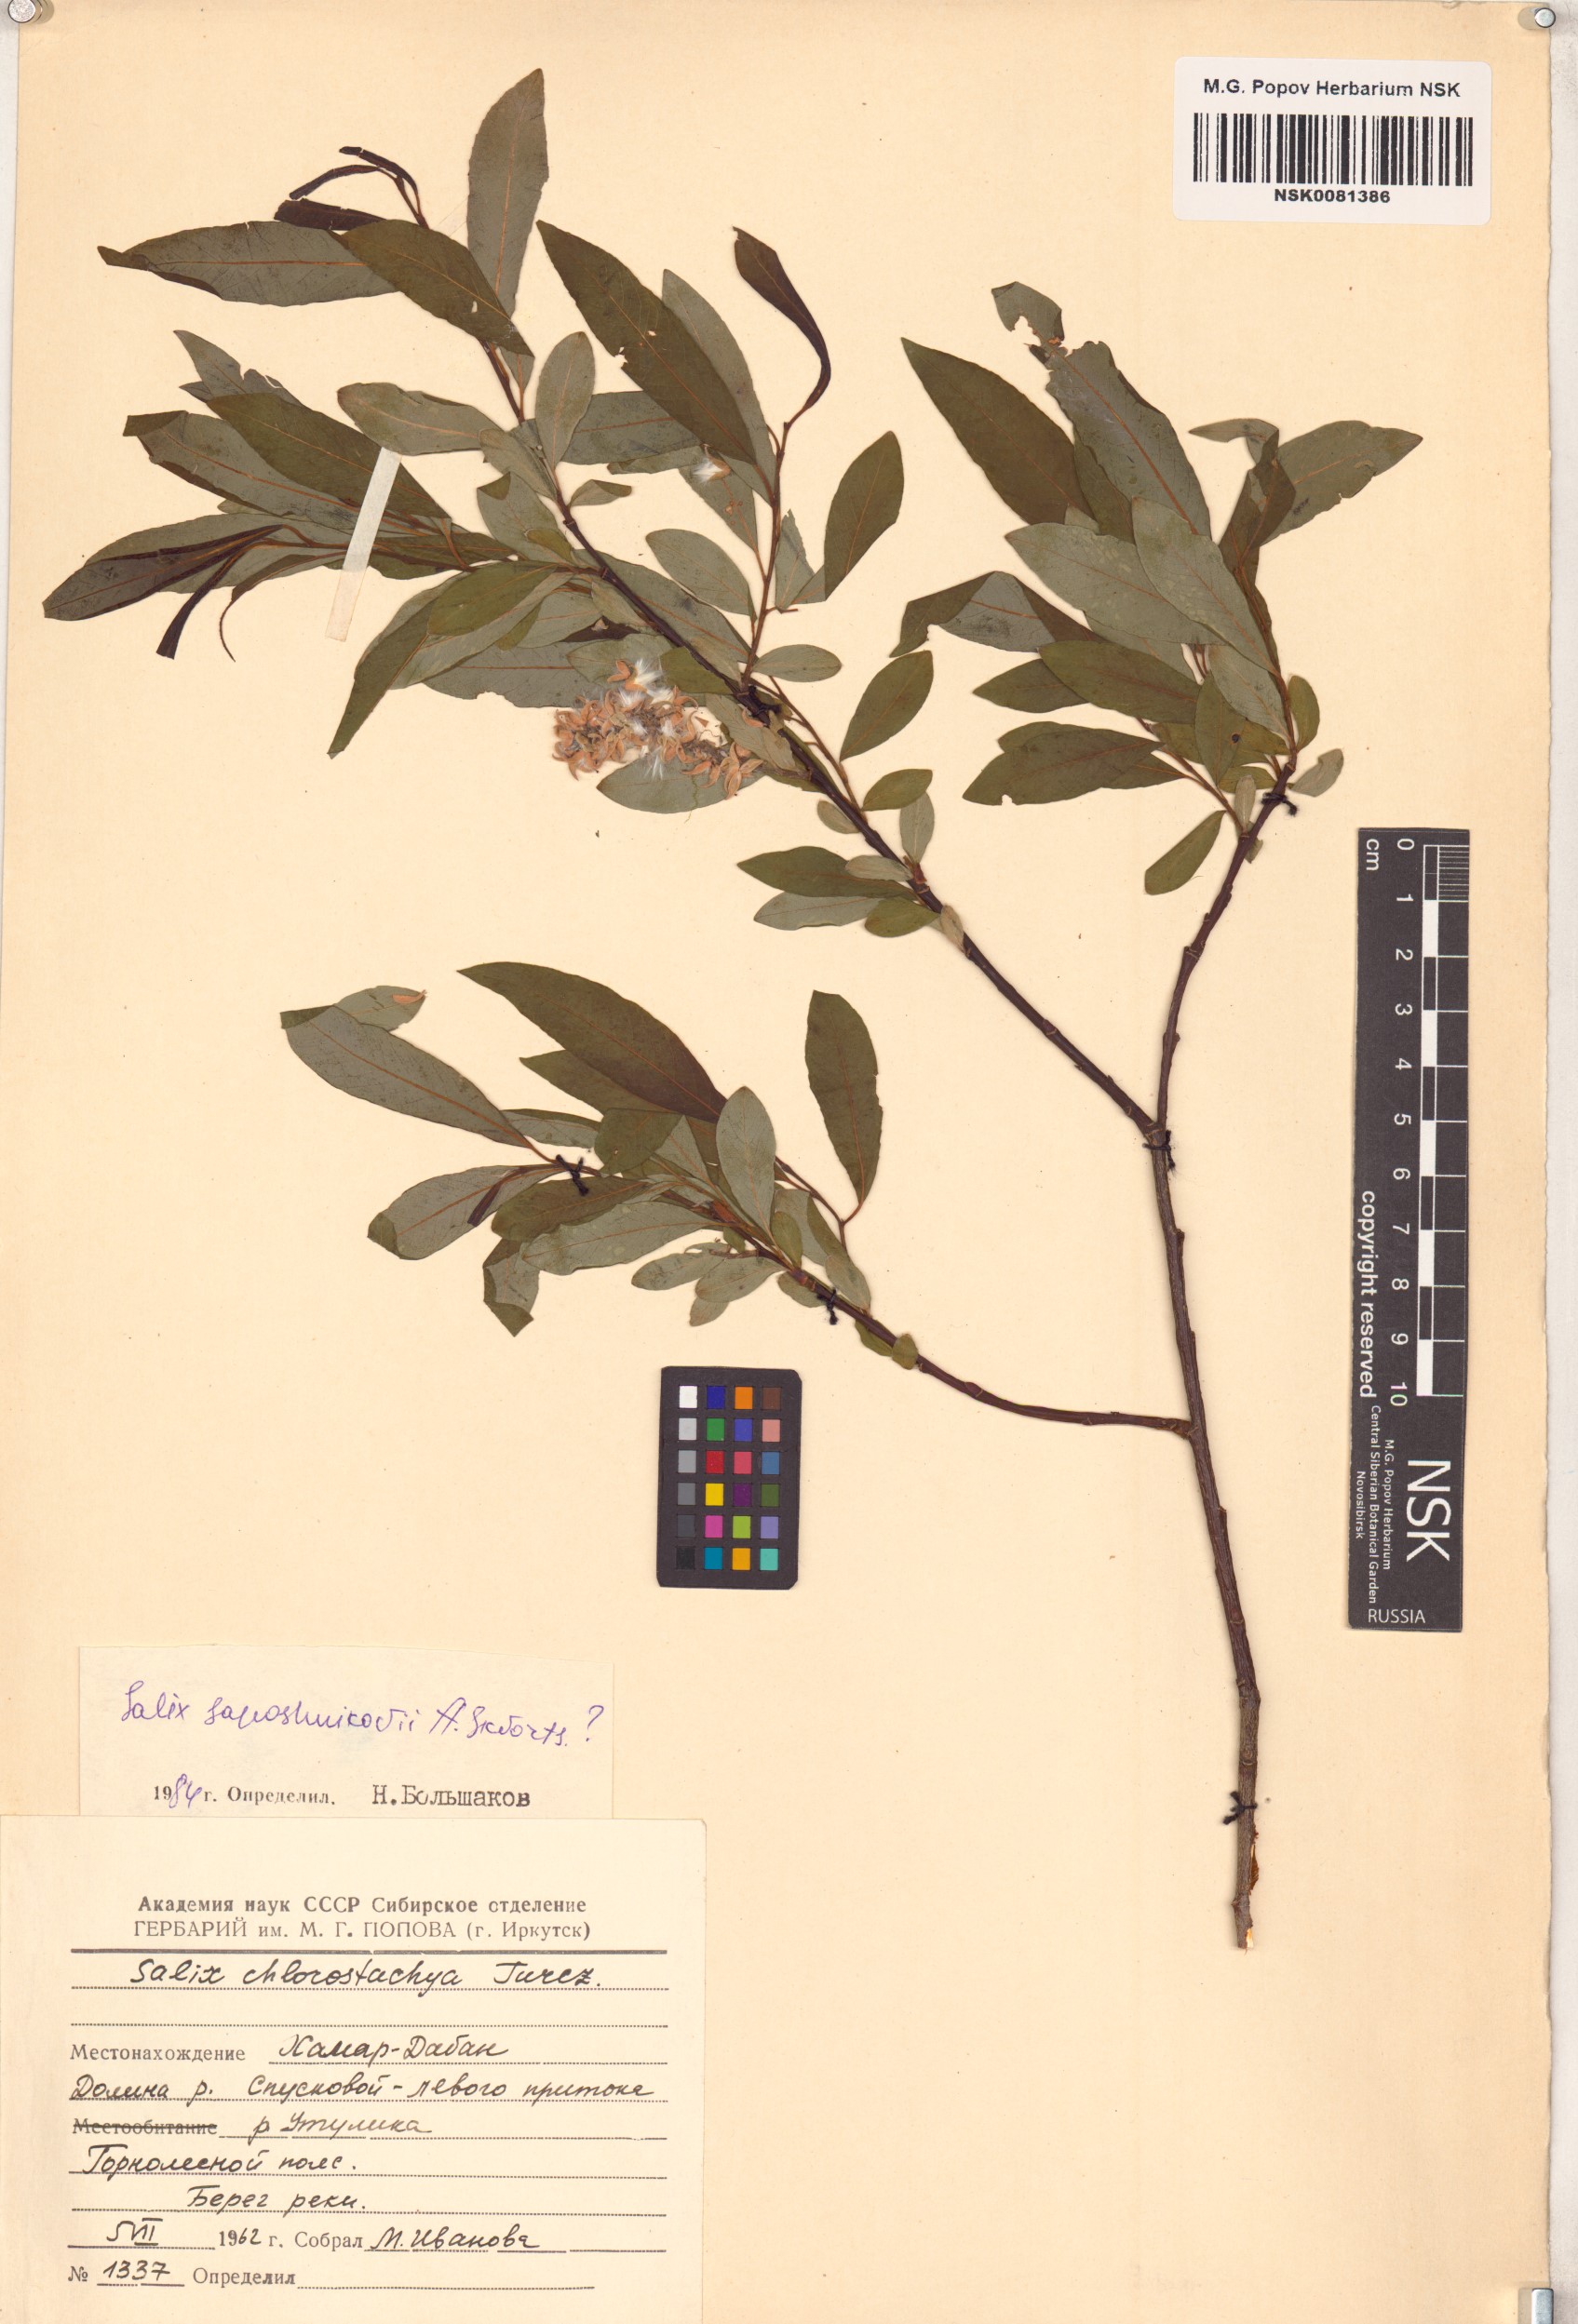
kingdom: Plantae
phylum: Tracheophyta
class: Magnoliopsida
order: Malpighiales
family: Salicaceae
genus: Salix
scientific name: Salix saposhnikovii
